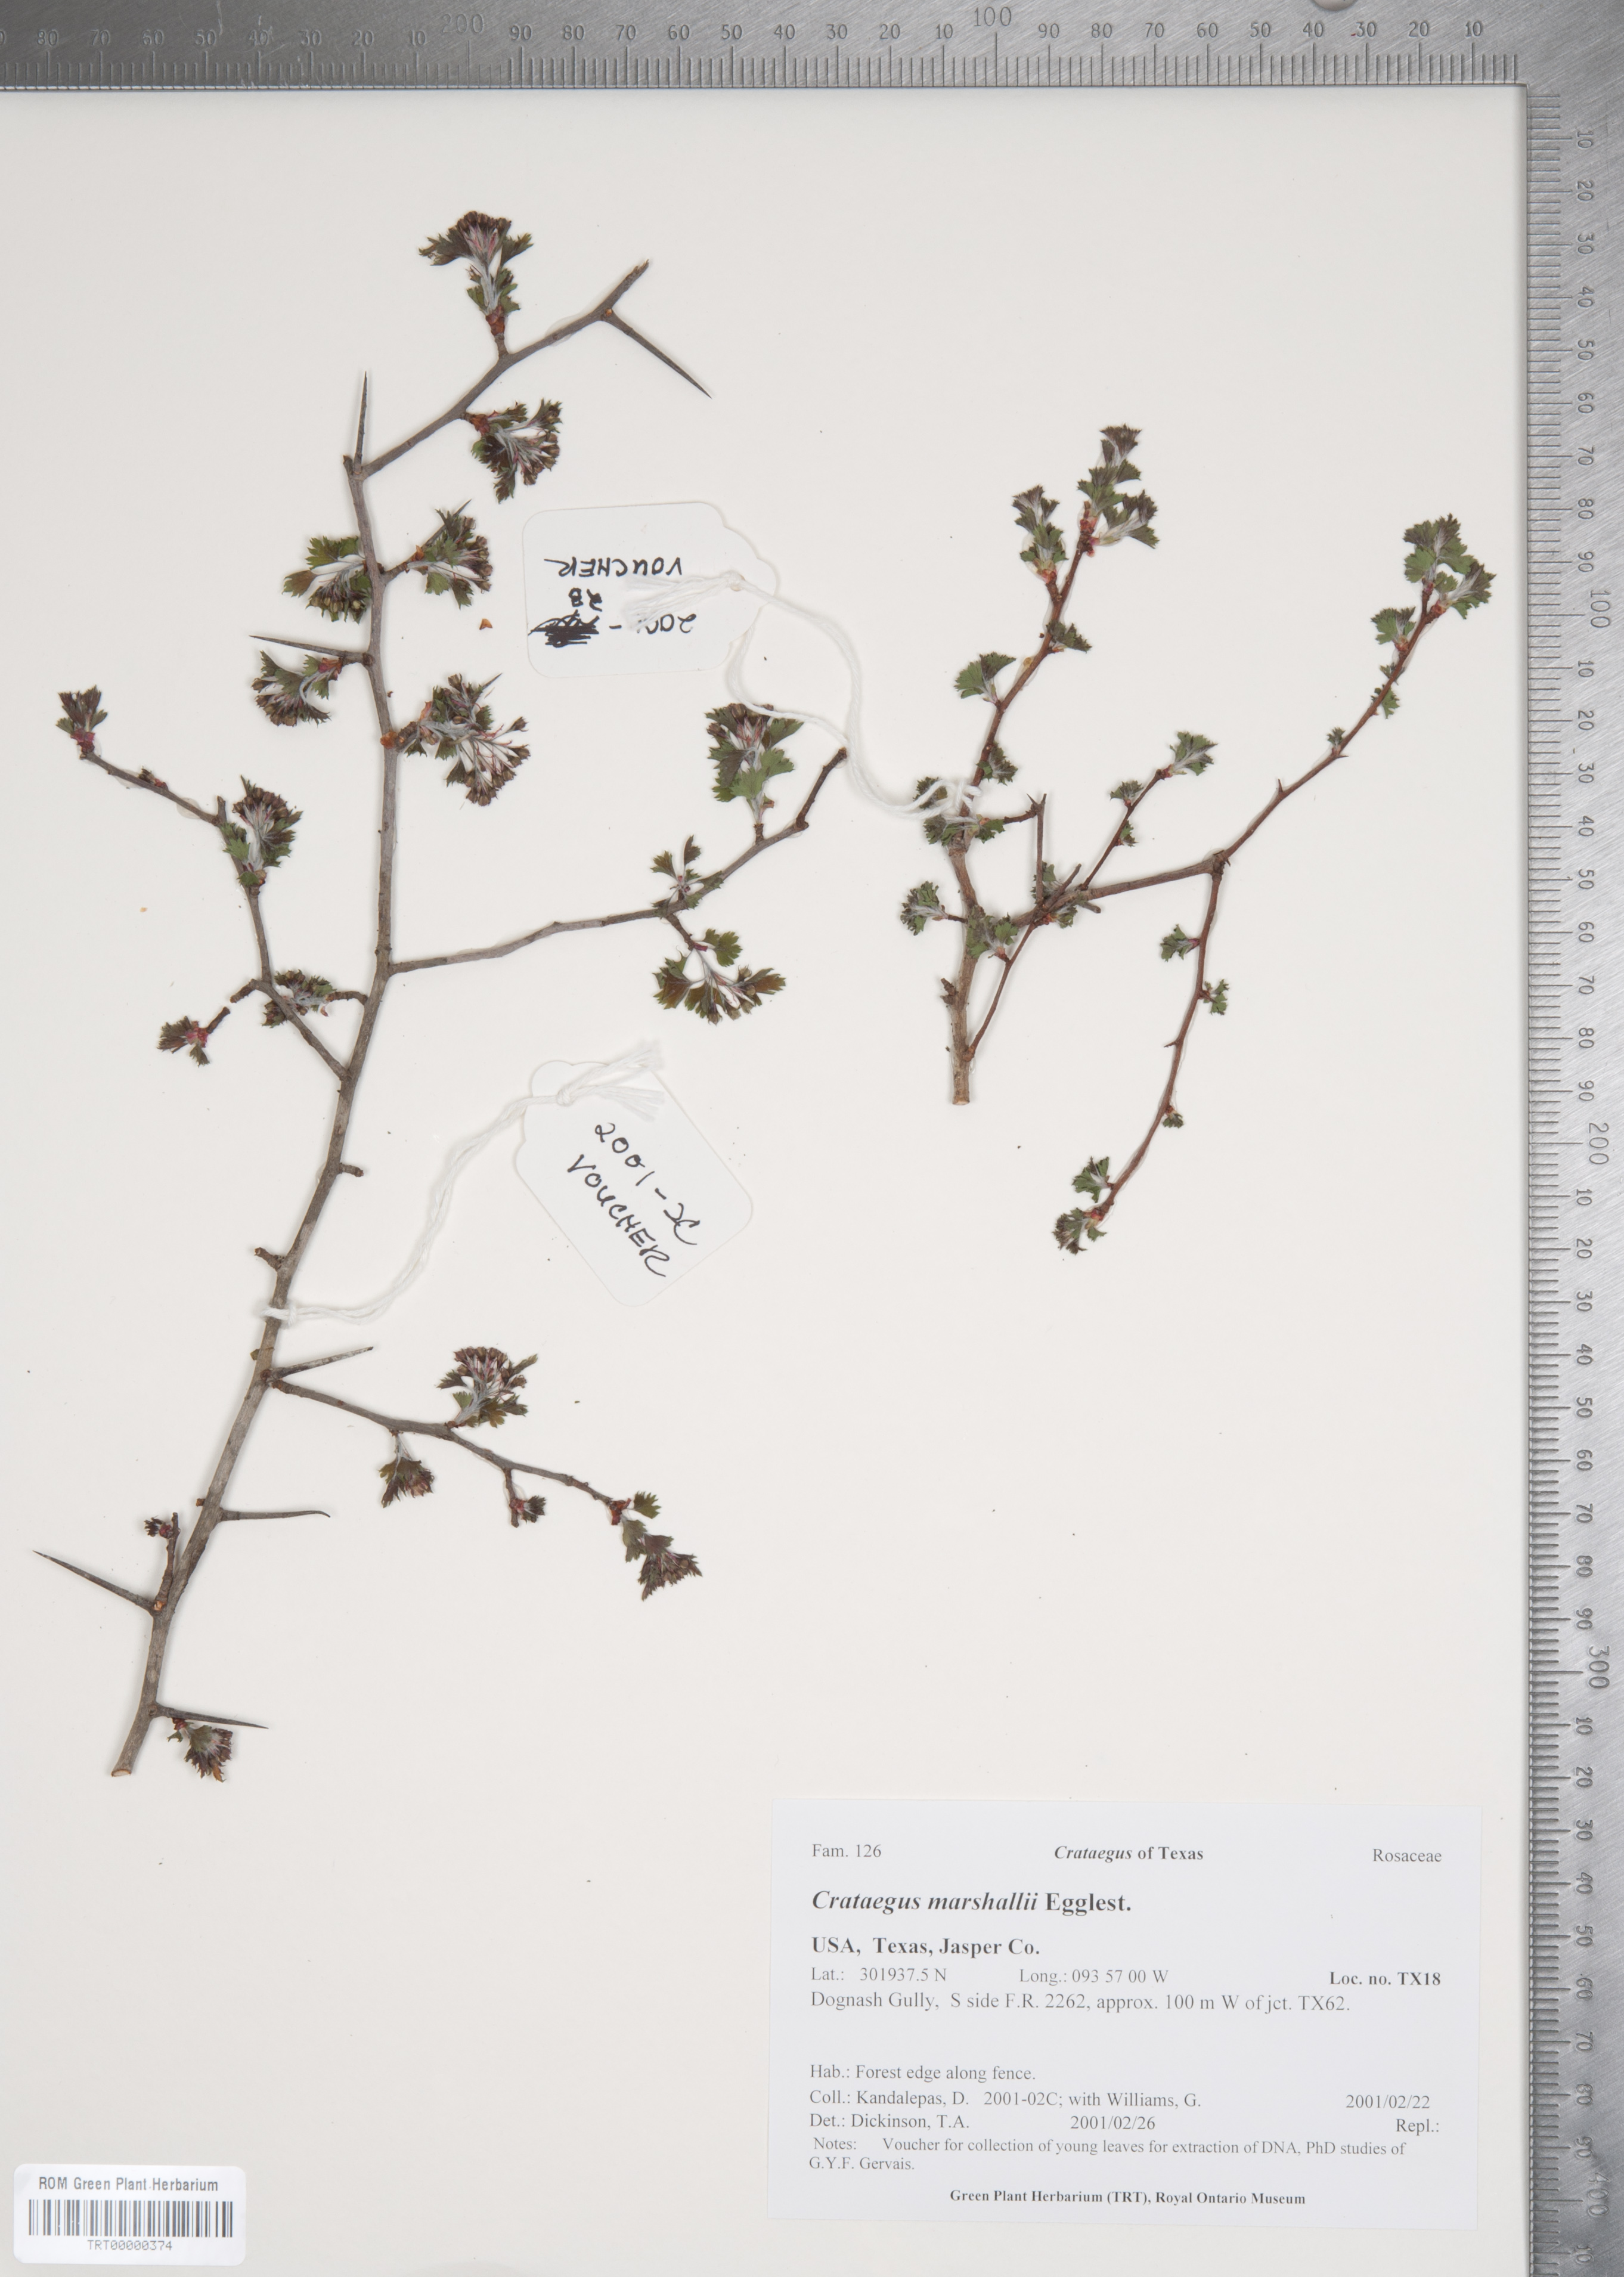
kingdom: Plantae
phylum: Tracheophyta
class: Magnoliopsida
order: Rosales
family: Rosaceae
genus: Crataegus
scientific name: Crataegus marshallii
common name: Parsley-hawthorn
